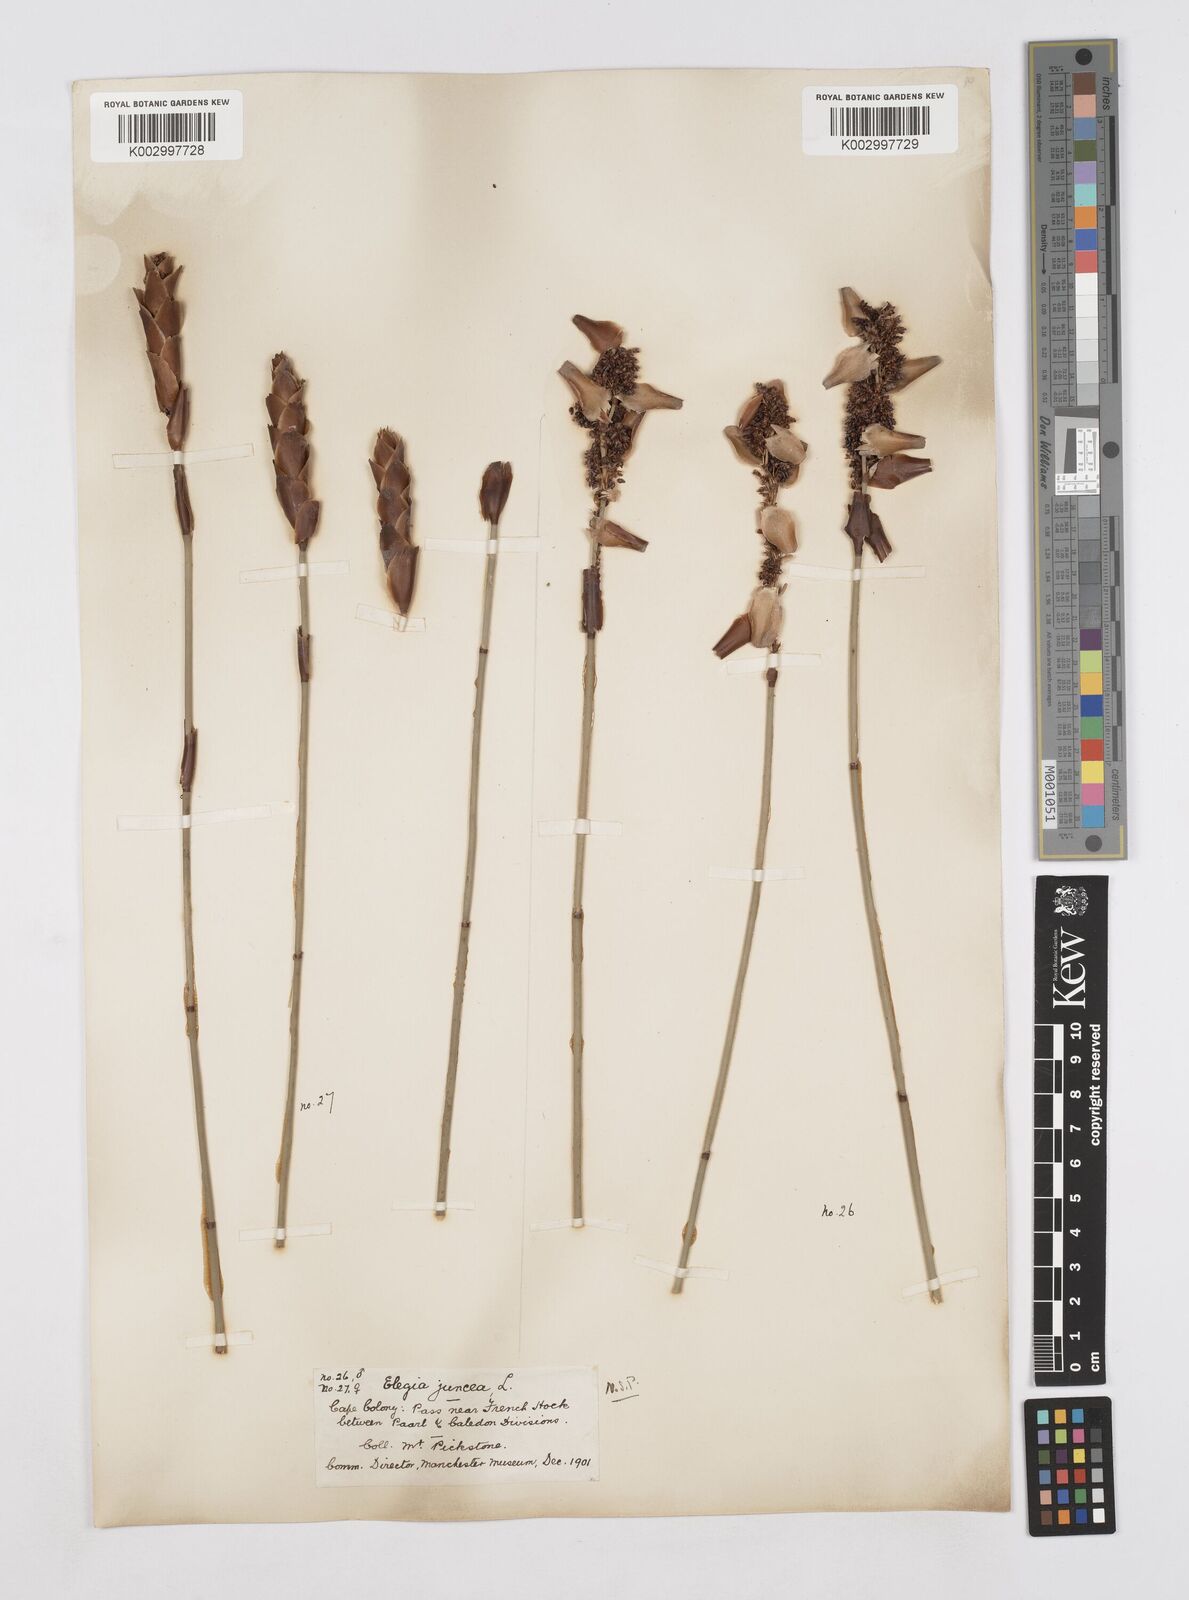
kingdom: Plantae
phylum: Tracheophyta
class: Liliopsida
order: Poales
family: Restionaceae
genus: Elegia
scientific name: Elegia juncea
